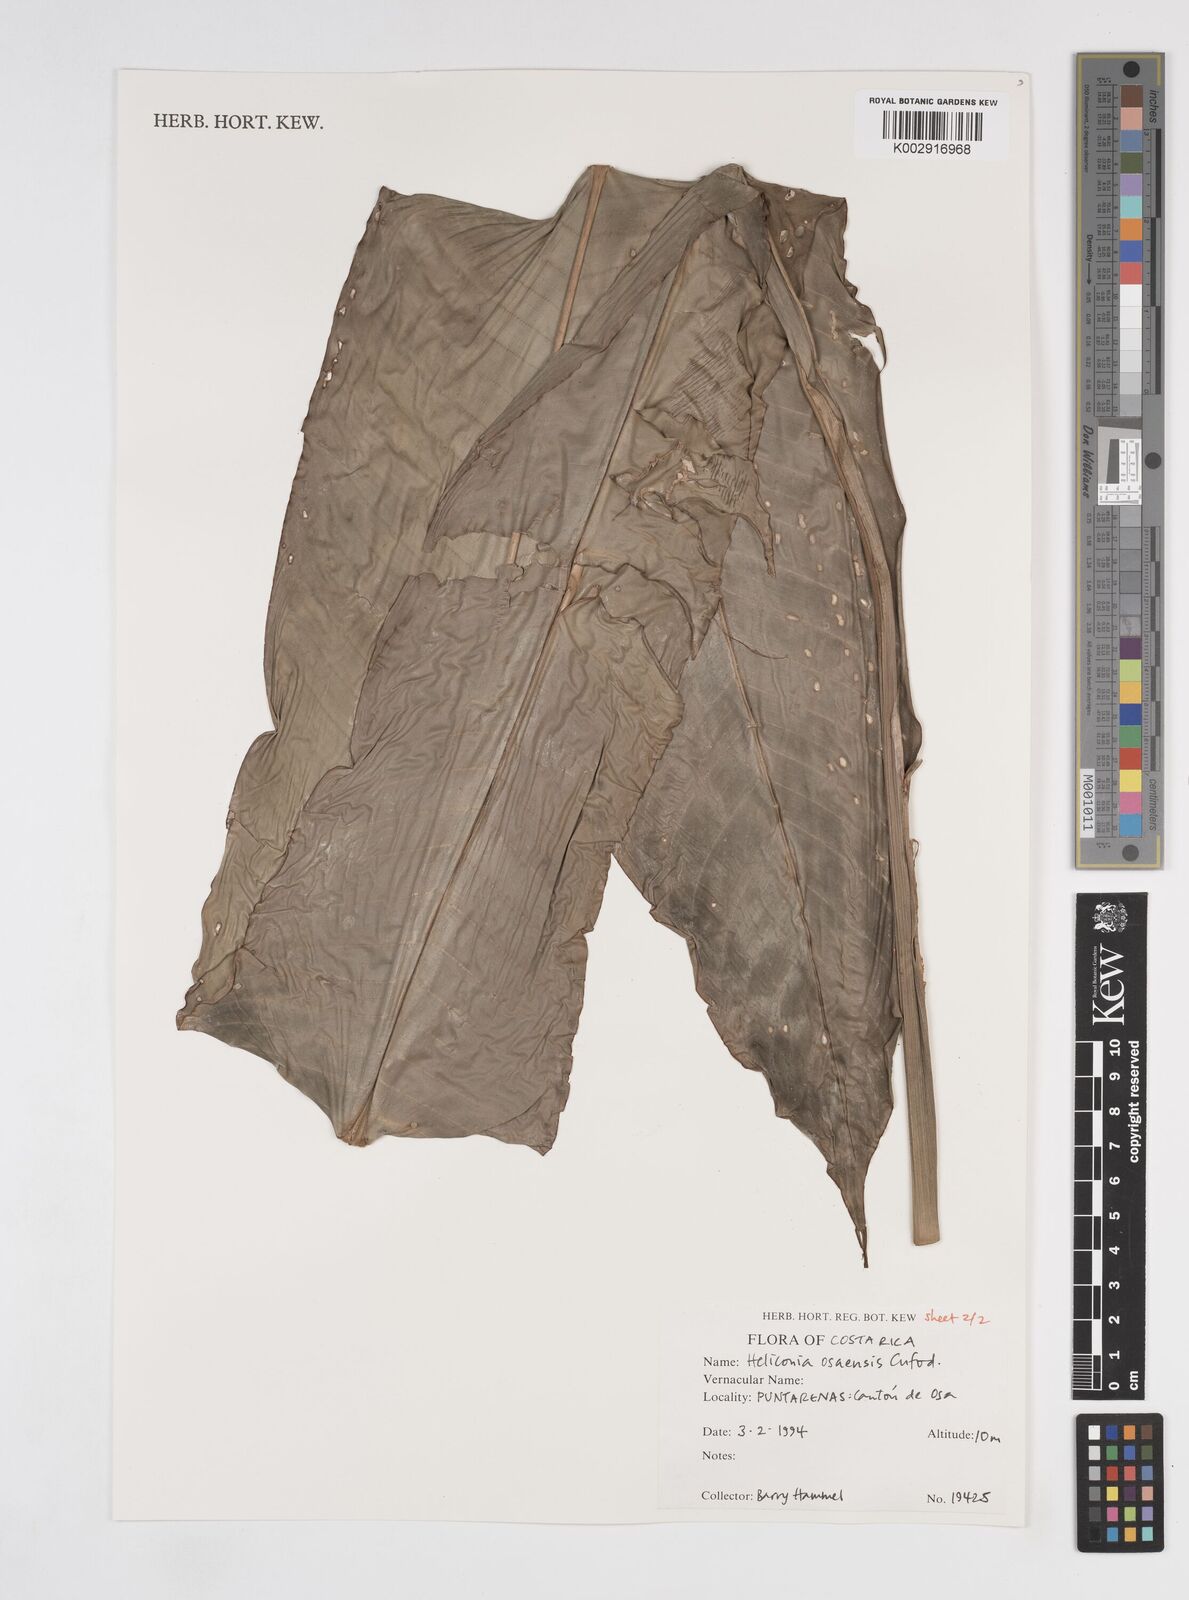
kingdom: Plantae
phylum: Tracheophyta
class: Liliopsida
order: Zingiberales
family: Heliconiaceae
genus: Heliconia
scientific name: Heliconia osaensis
